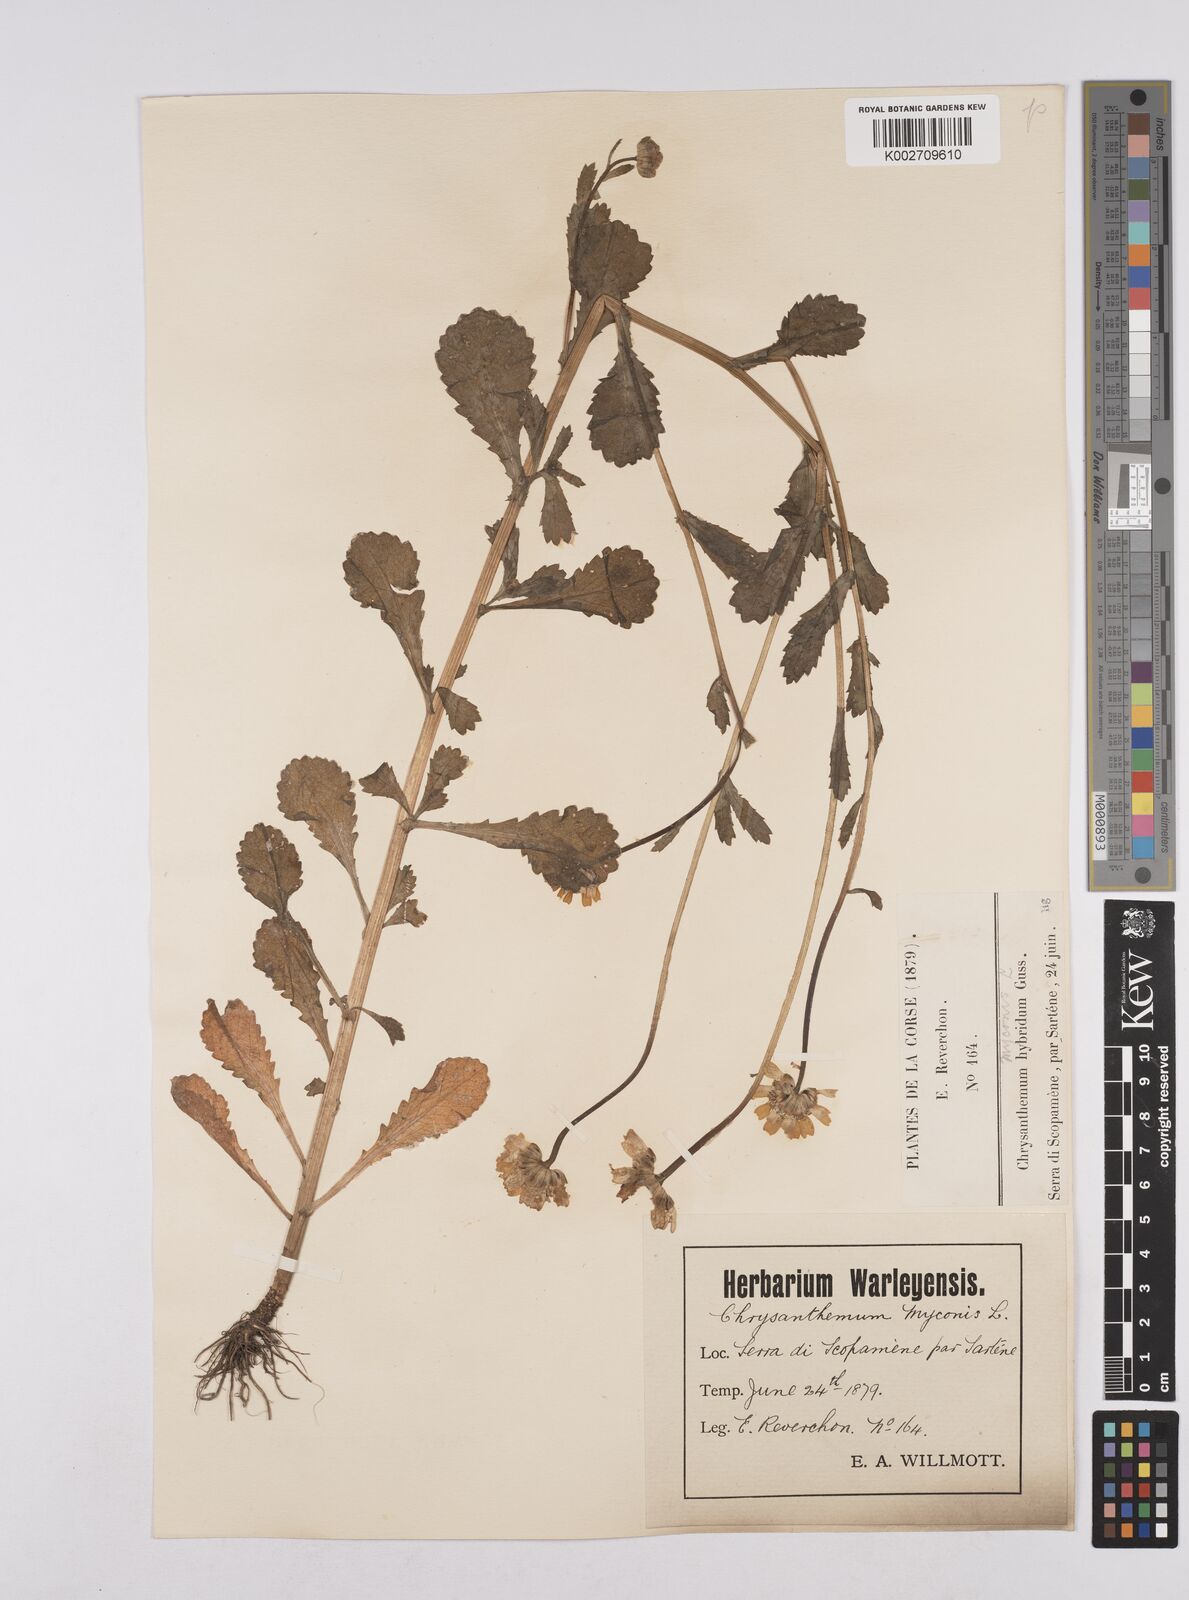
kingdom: Plantae
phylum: Tracheophyta
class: Magnoliopsida
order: Asterales
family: Asteraceae
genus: Coleostephus
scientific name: Coleostephus paludosus
